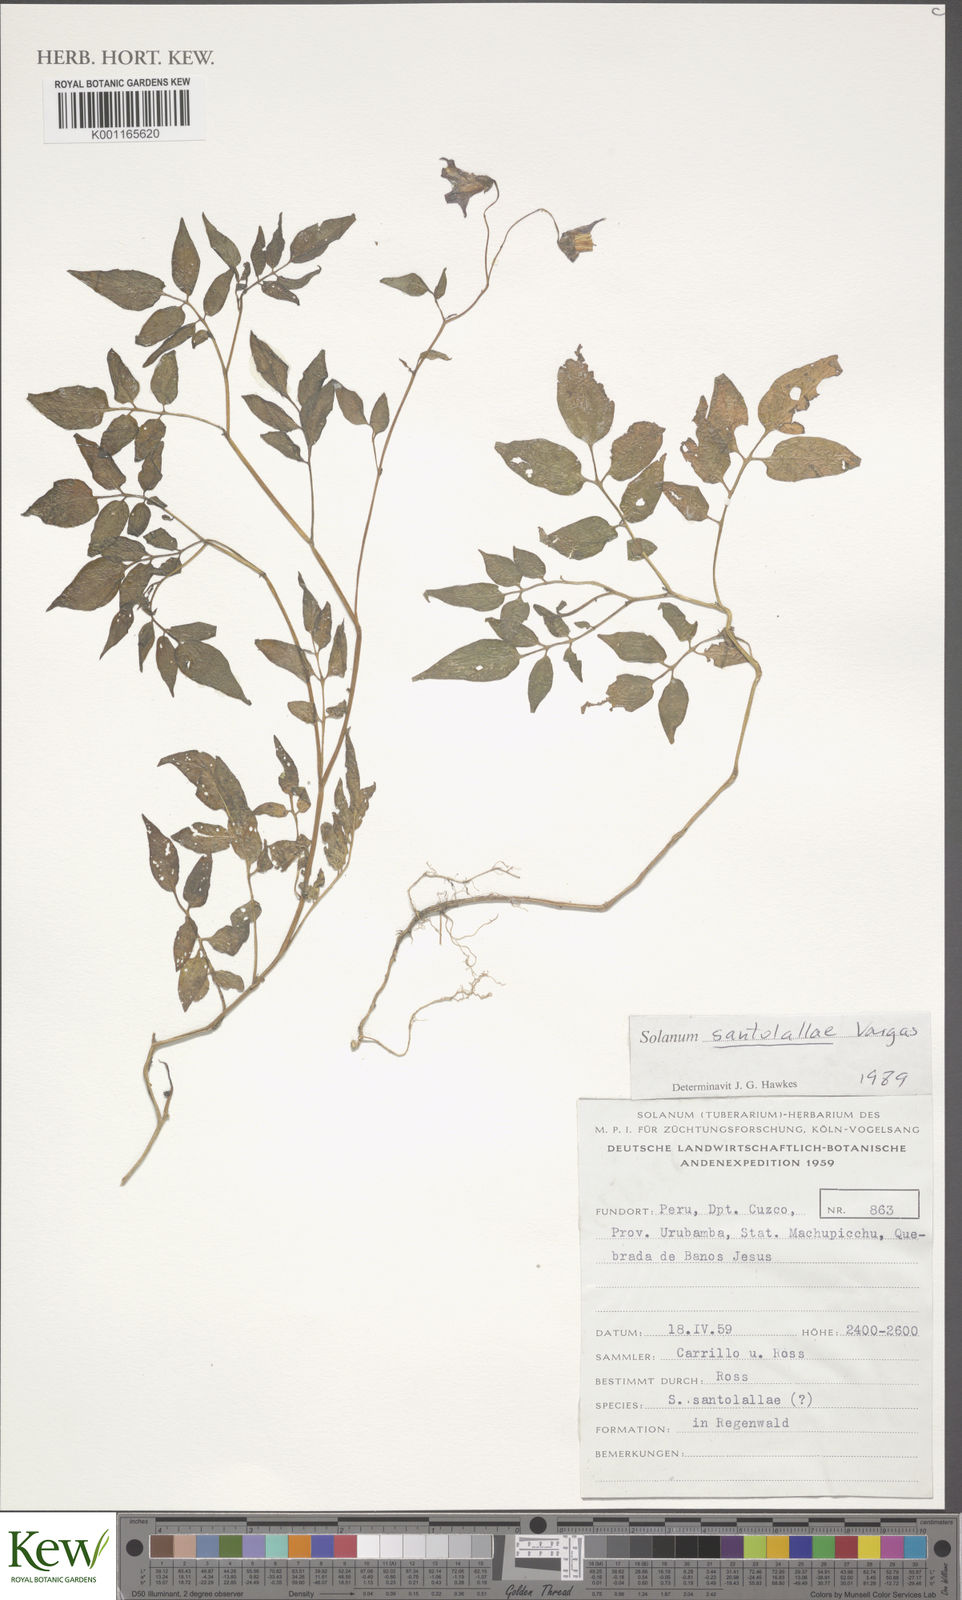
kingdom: Plantae
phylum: Tracheophyta
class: Magnoliopsida
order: Solanales
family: Solanaceae
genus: Solanum
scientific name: Solanum laxissimum
